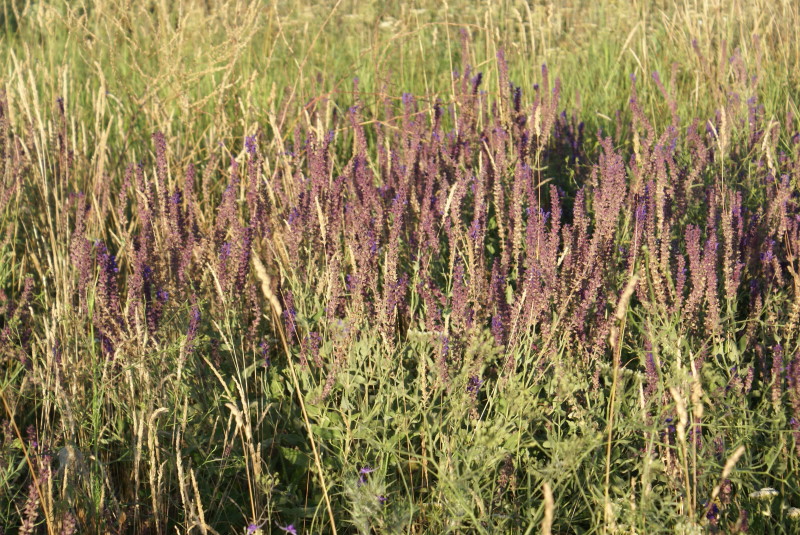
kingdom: Plantae
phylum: Tracheophyta
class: Magnoliopsida
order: Lamiales
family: Lamiaceae
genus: Salvia
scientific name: Salvia
